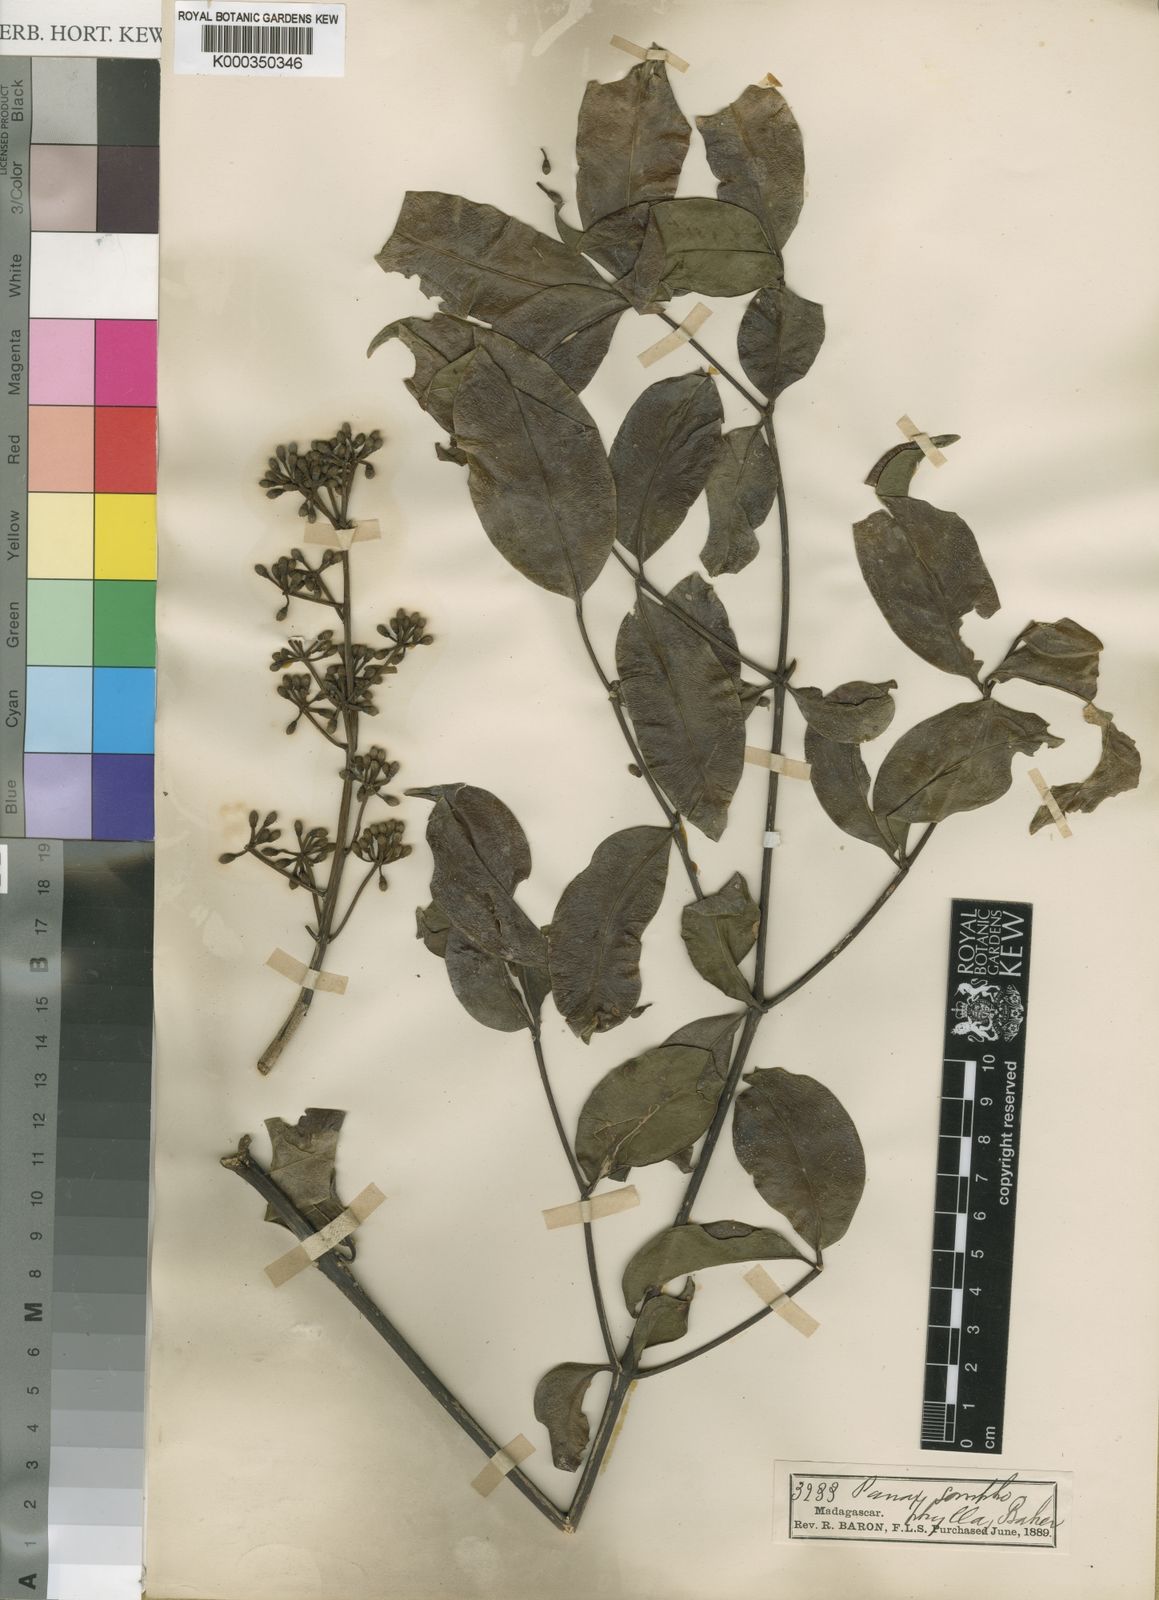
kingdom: Plantae
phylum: Tracheophyta
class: Magnoliopsida
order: Apiales
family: Araliaceae
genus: Polyscias
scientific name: Polyscias amplifolia
